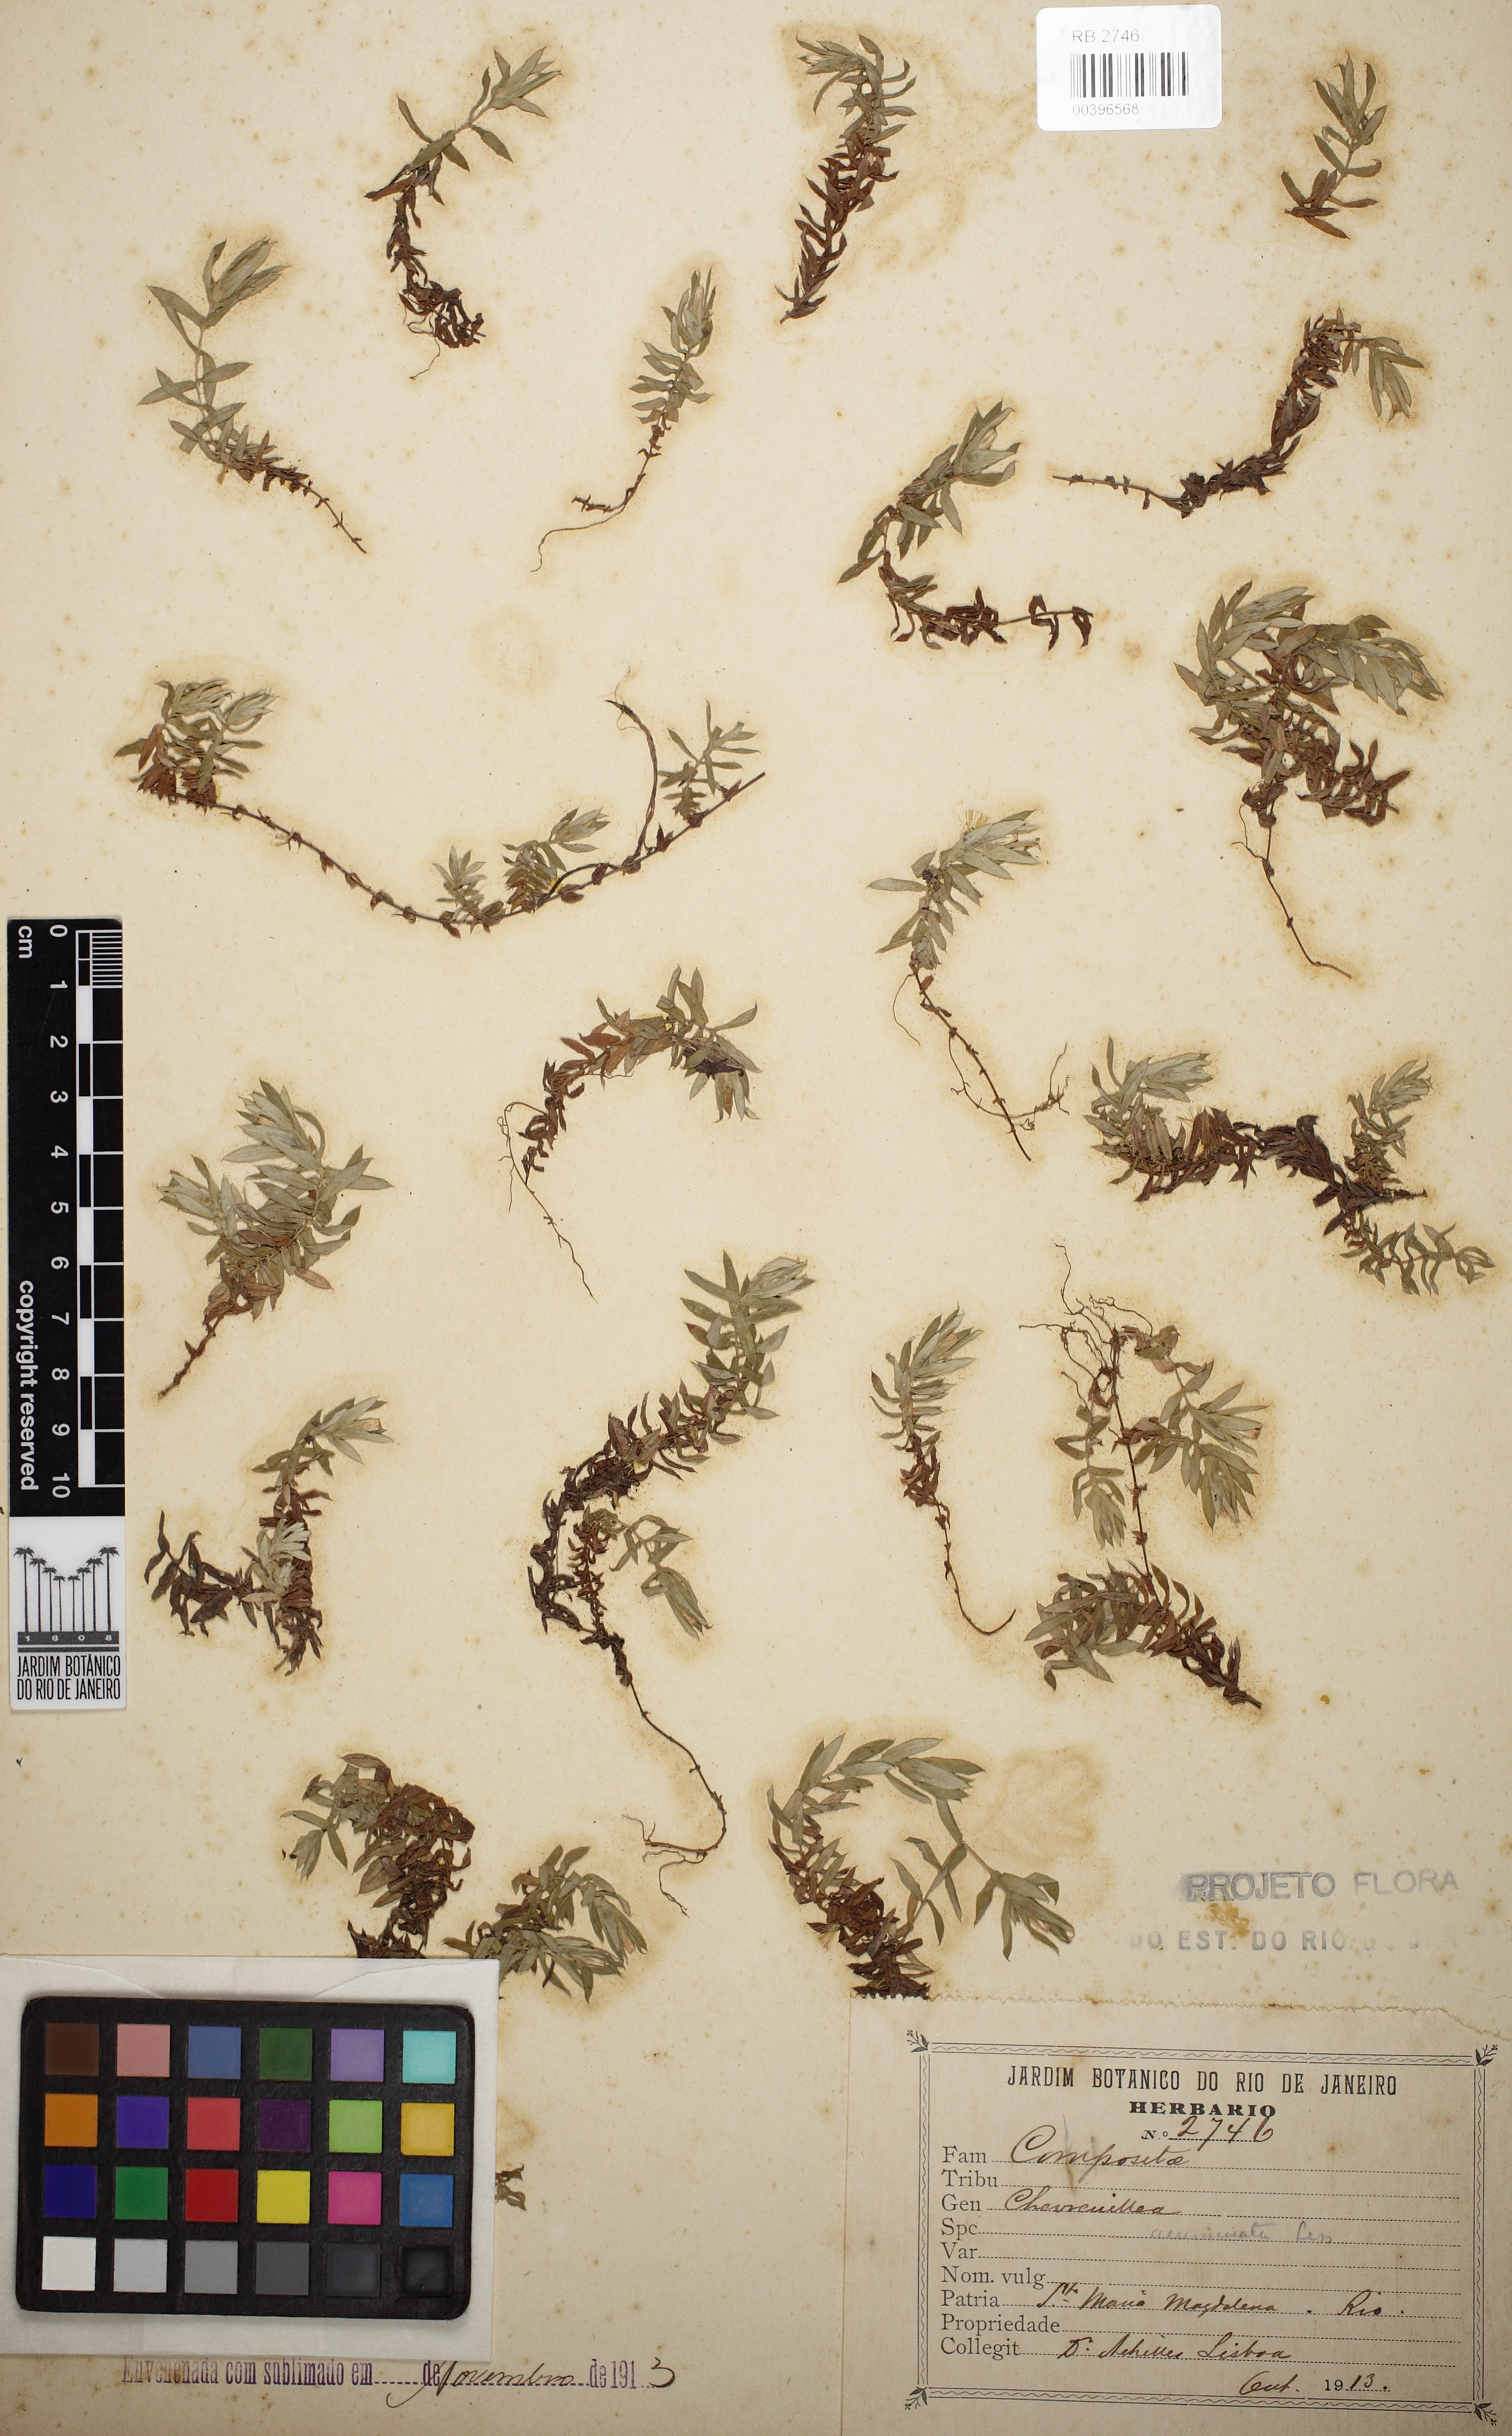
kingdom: Plantae
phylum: Tracheophyta
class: Magnoliopsida
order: Asterales
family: Asteraceae
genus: Chevreulia
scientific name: Chevreulia acuminata
